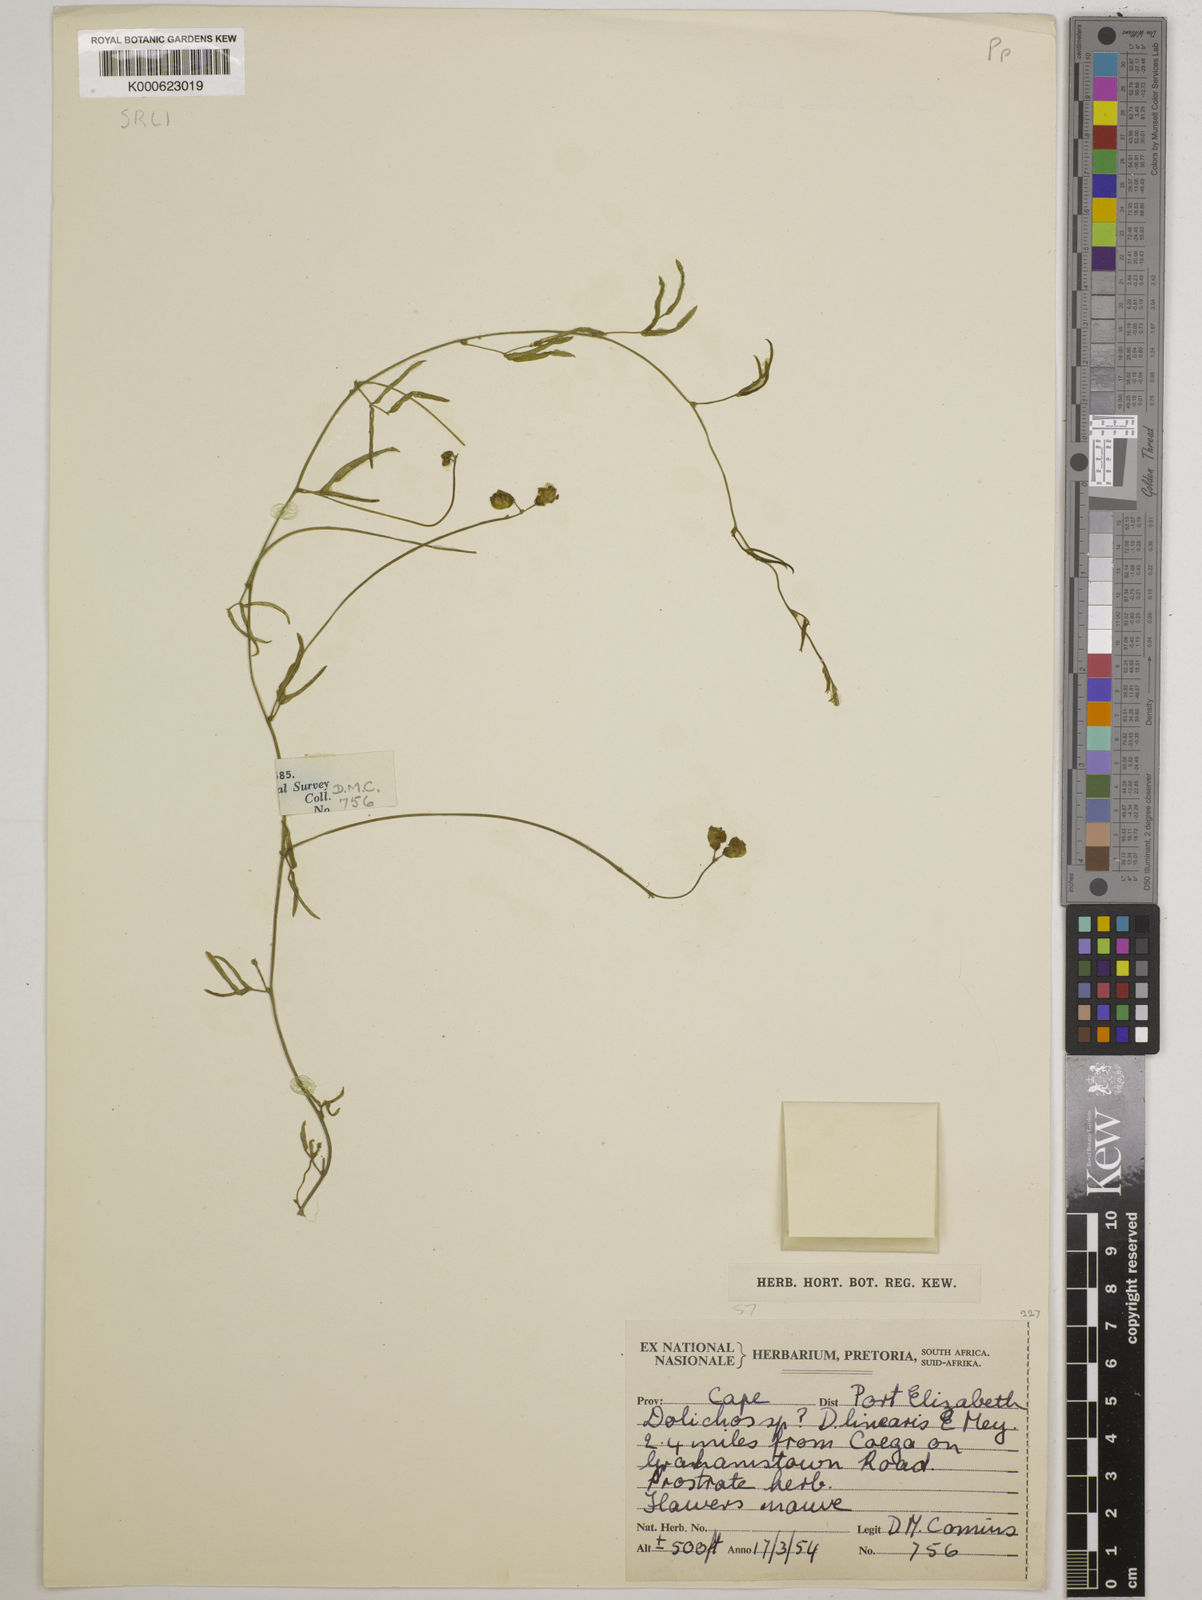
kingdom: Plantae
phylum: Tracheophyta
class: Magnoliopsida
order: Fabales
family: Fabaceae
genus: Dolichos
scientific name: Dolichos linearis
